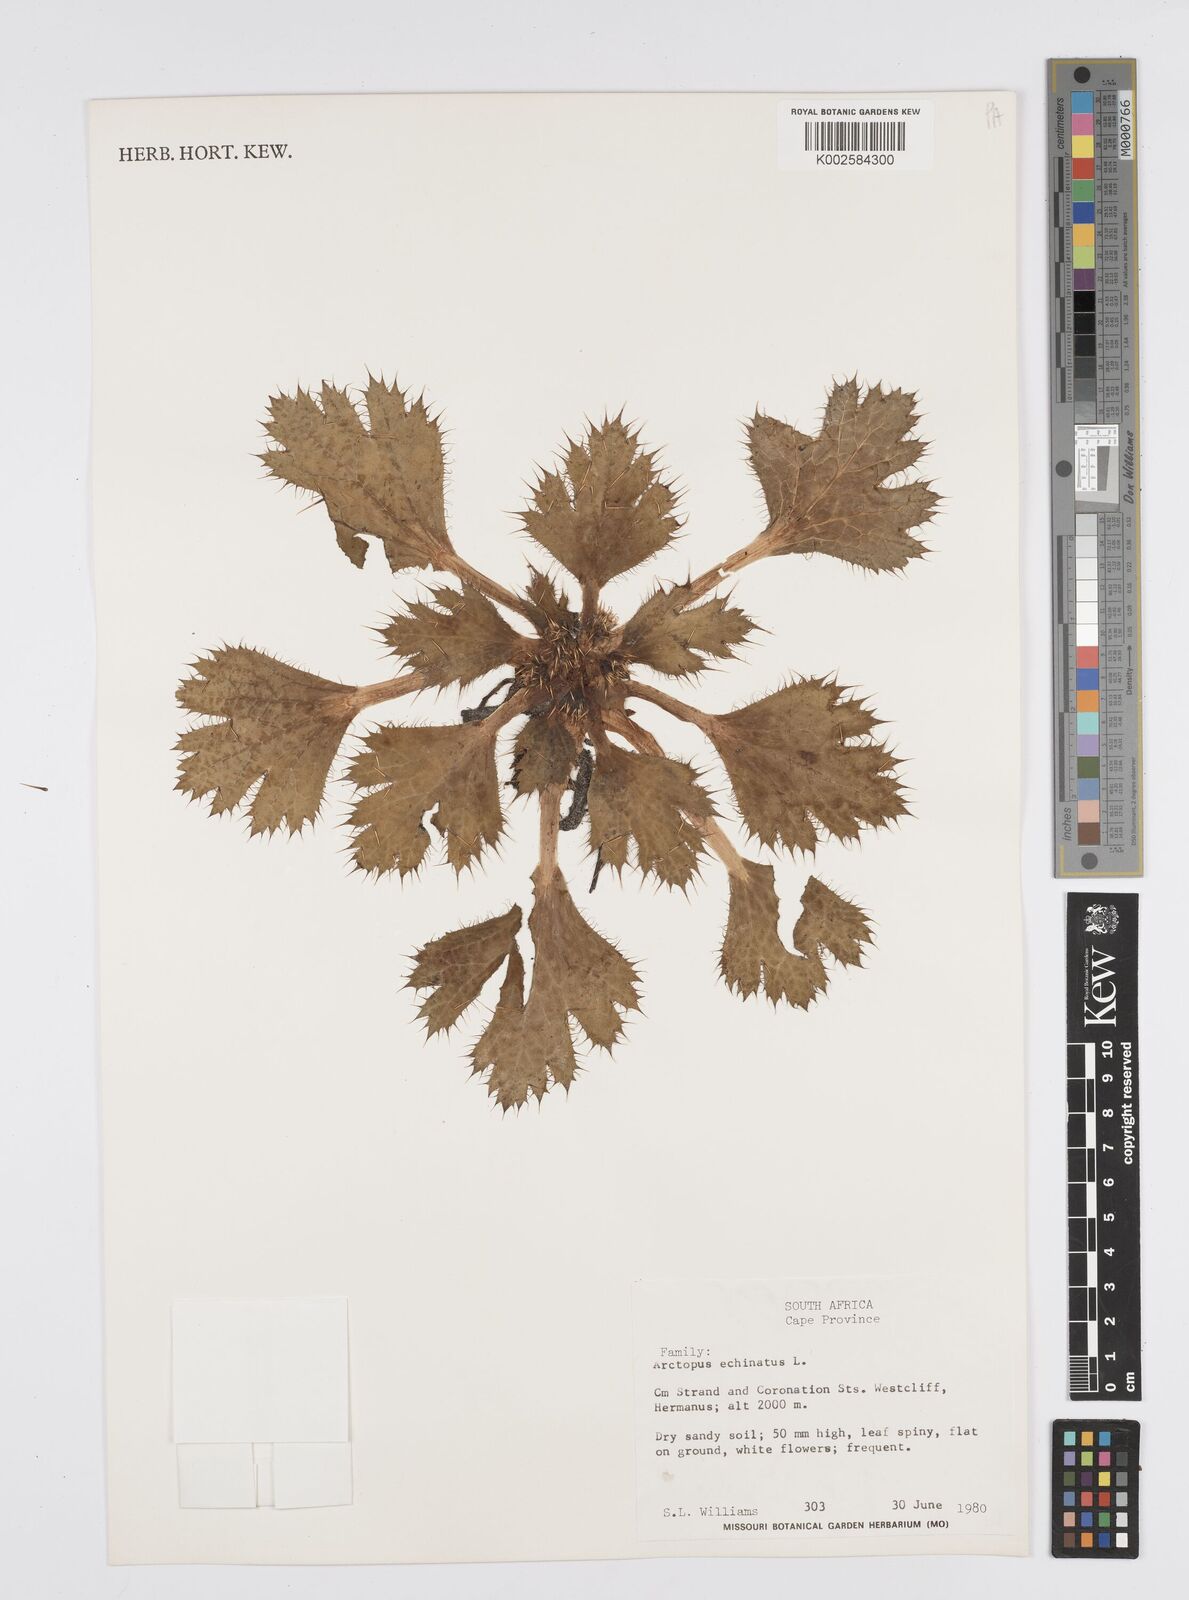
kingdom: Plantae
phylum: Tracheophyta
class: Magnoliopsida
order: Apiales
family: Apiaceae
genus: Arctopus
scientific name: Arctopus echinatus
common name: Platdoring
